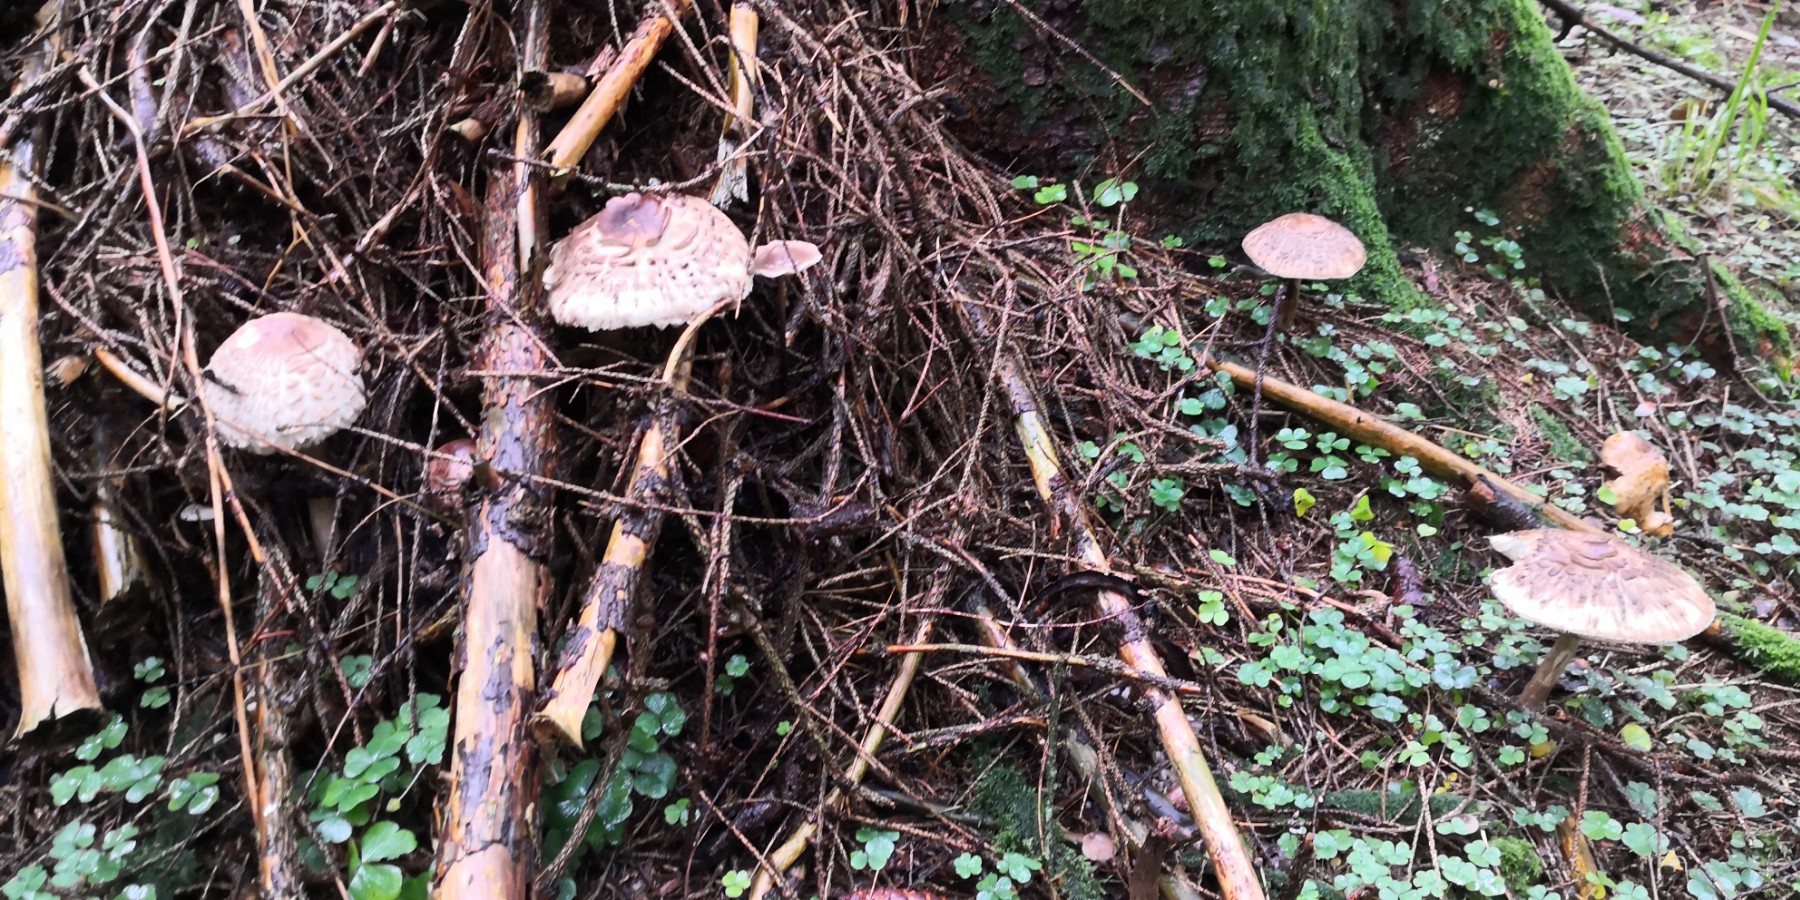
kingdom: Fungi
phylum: Basidiomycota
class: Agaricomycetes
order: Agaricales
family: Agaricaceae
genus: Chlorophyllum
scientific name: Chlorophyllum olivieri
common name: almindelig rabarberhat
